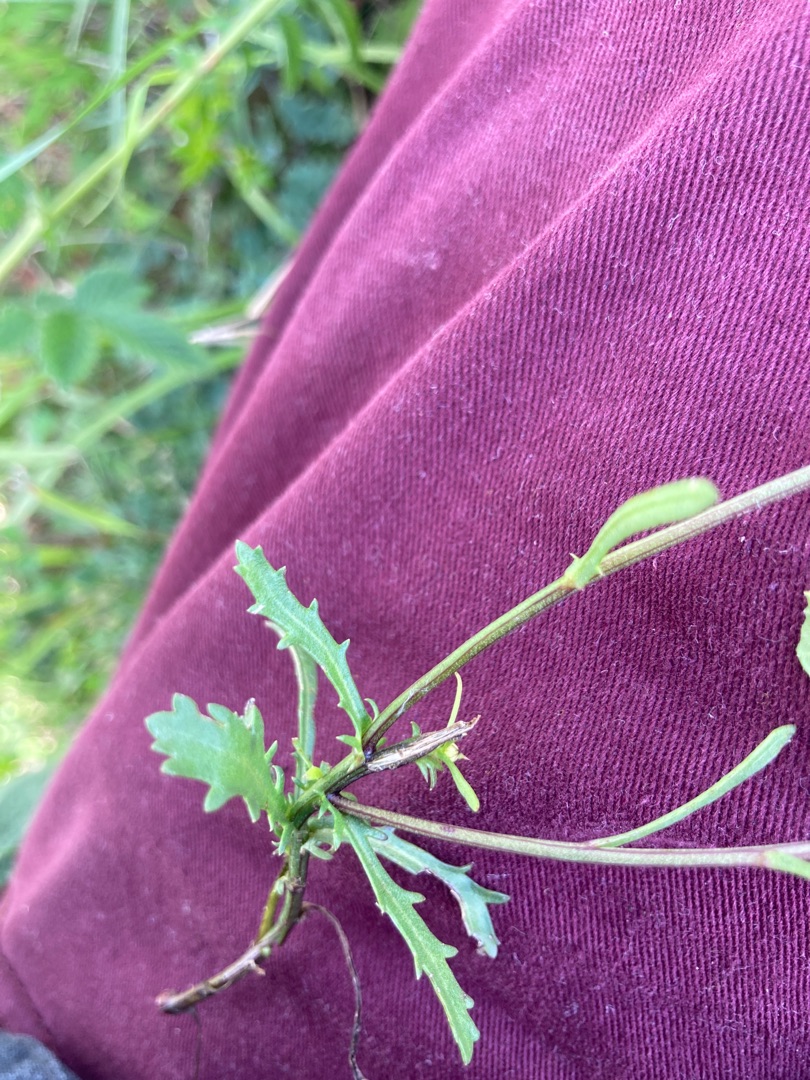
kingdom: Plantae
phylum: Tracheophyta
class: Magnoliopsida
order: Asterales
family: Asteraceae
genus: Leucanthemum
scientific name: Leucanthemum vulgare
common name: Hvid okseøje
